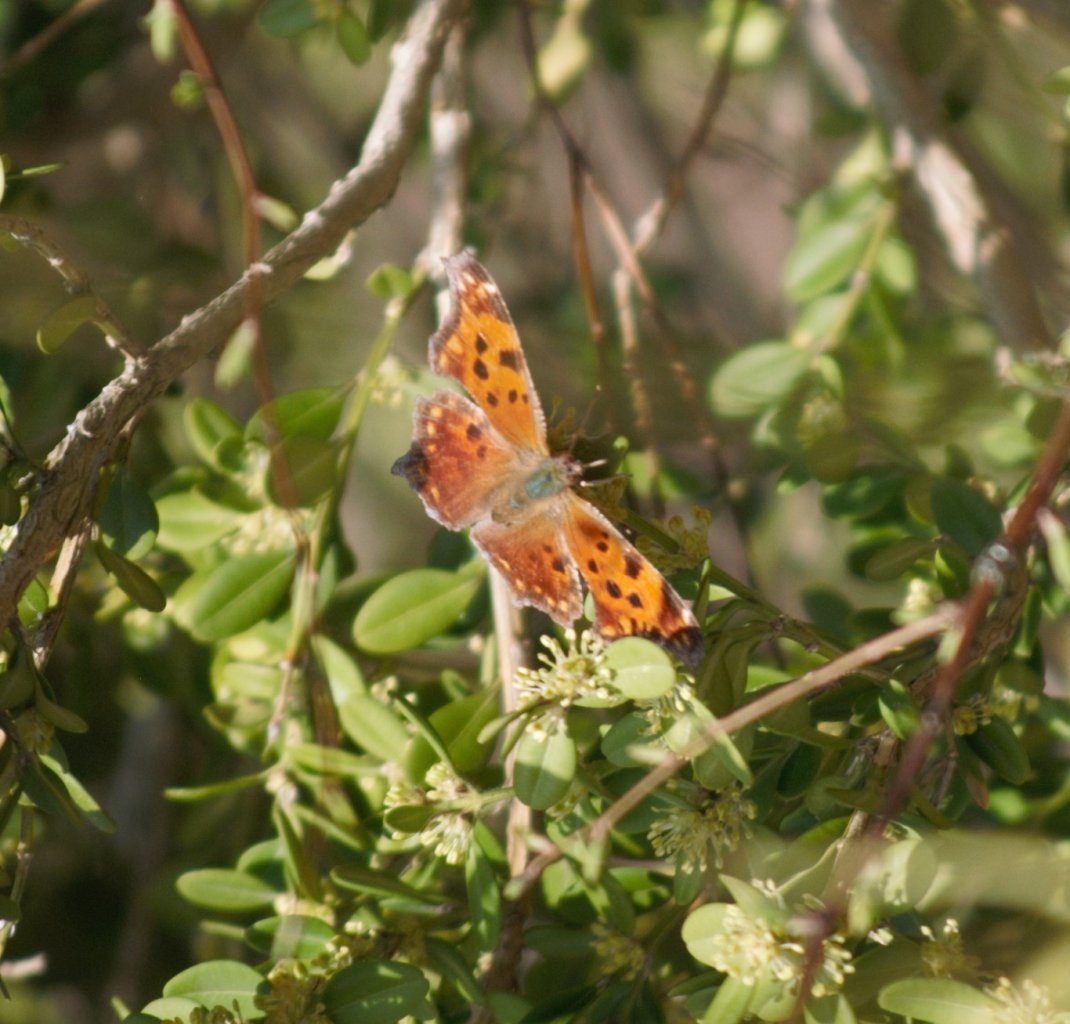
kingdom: Animalia
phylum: Arthropoda
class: Insecta
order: Lepidoptera
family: Nymphalidae
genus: Polygonia
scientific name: Polygonia comma
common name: Eastern Comma
